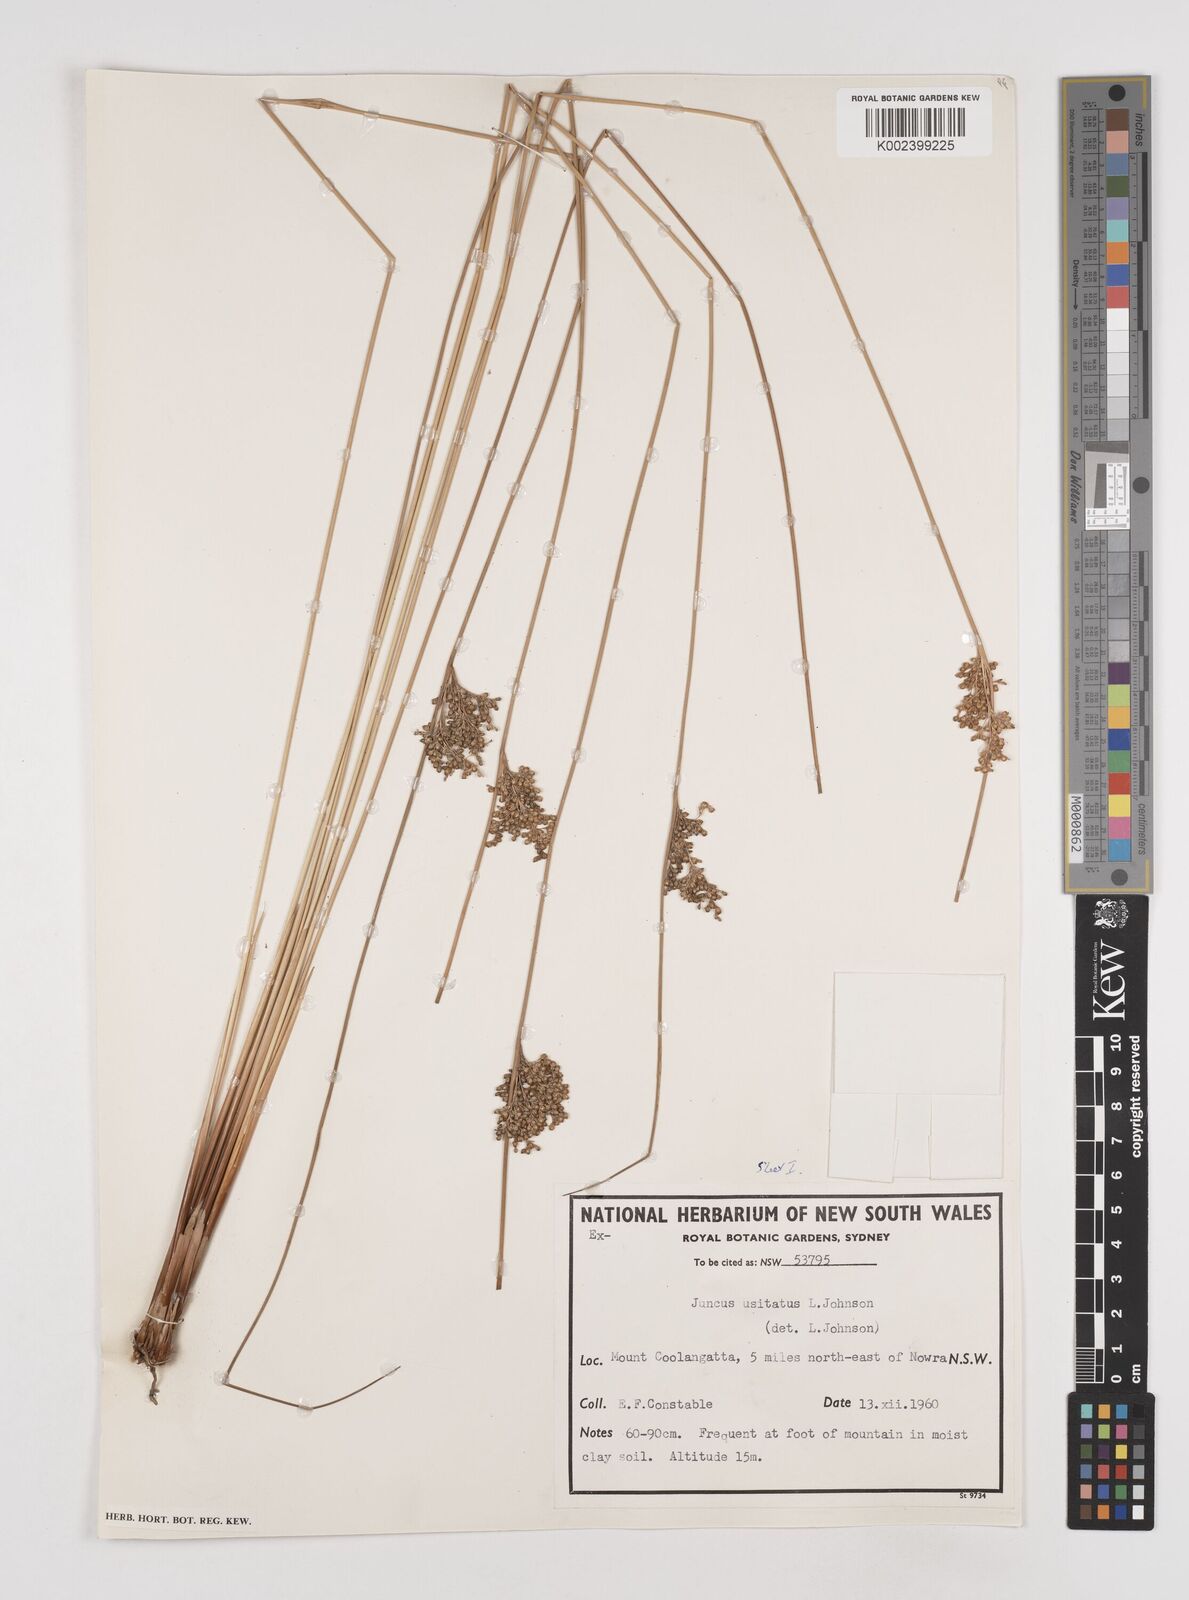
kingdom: Plantae
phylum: Tracheophyta
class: Liliopsida
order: Poales
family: Juncaceae
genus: Juncus
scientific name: Juncus usitatus
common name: Rush
